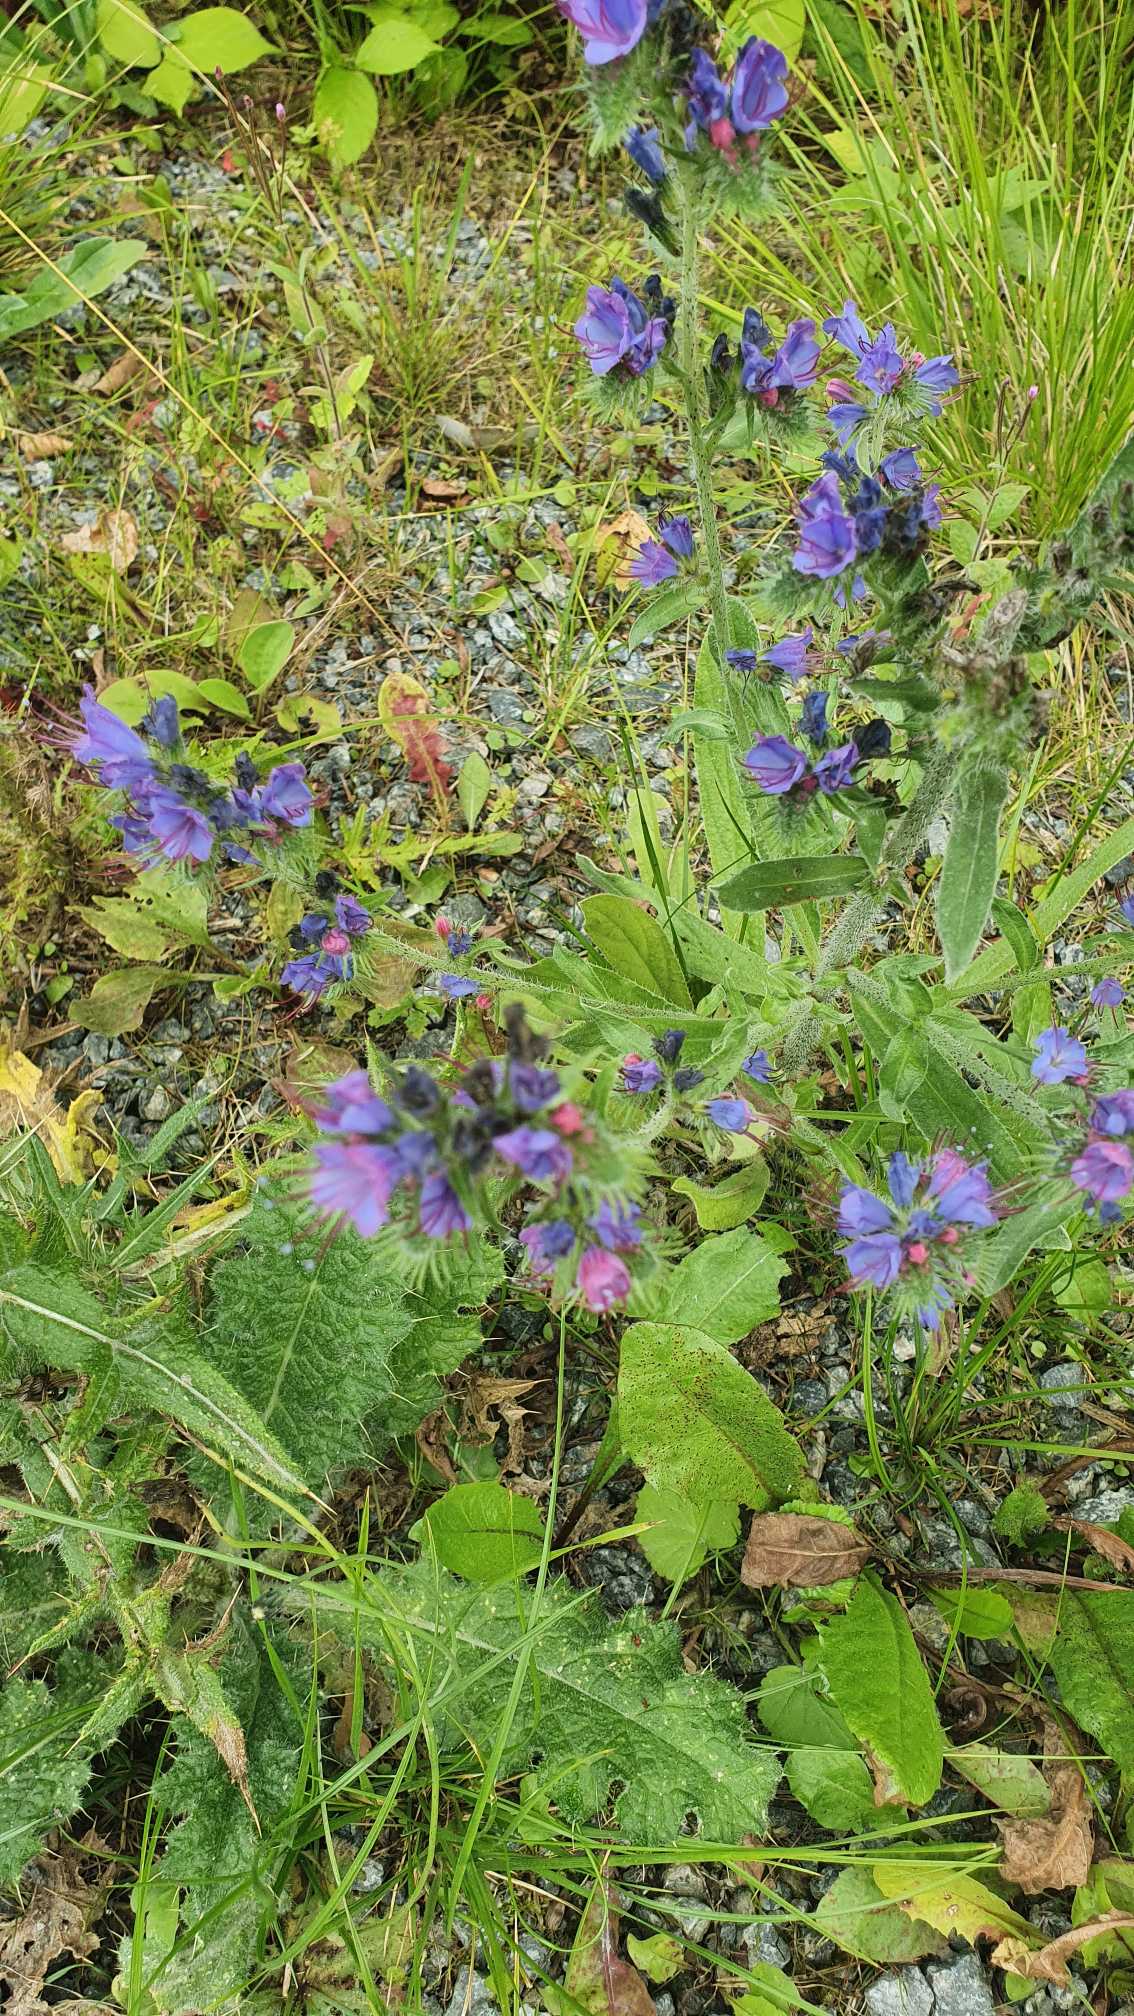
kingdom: Plantae
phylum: Tracheophyta
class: Magnoliopsida
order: Boraginales
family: Boraginaceae
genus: Echium
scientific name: Echium vulgare
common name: Slangehoved
